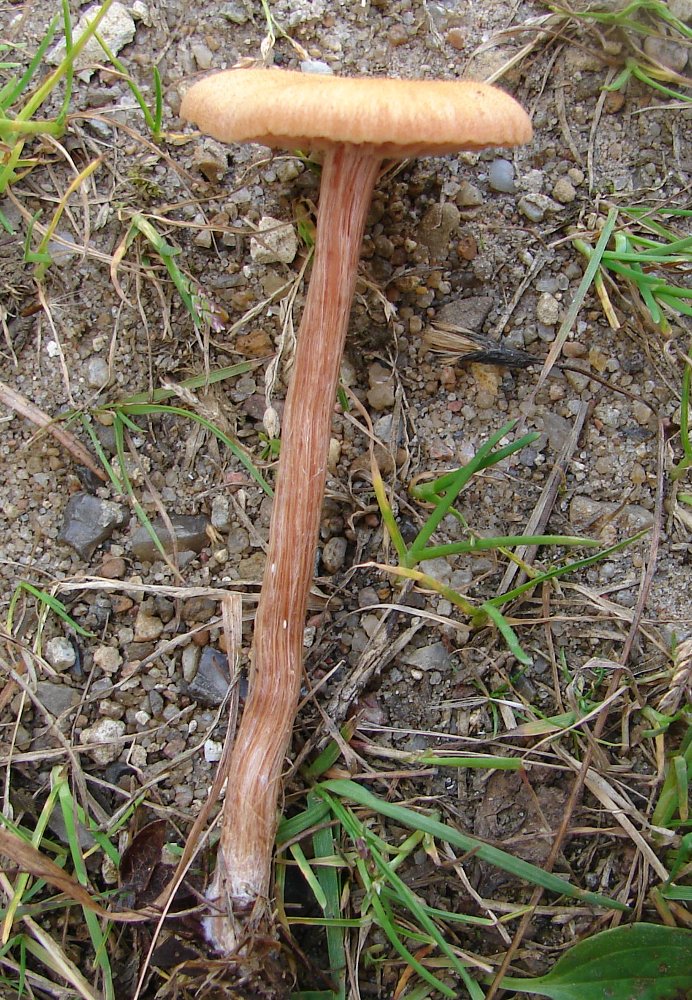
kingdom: Fungi
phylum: Basidiomycota
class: Agaricomycetes
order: Agaricales
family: Hydnangiaceae
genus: Laccaria
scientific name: Laccaria proxima
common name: stor ametysthat
